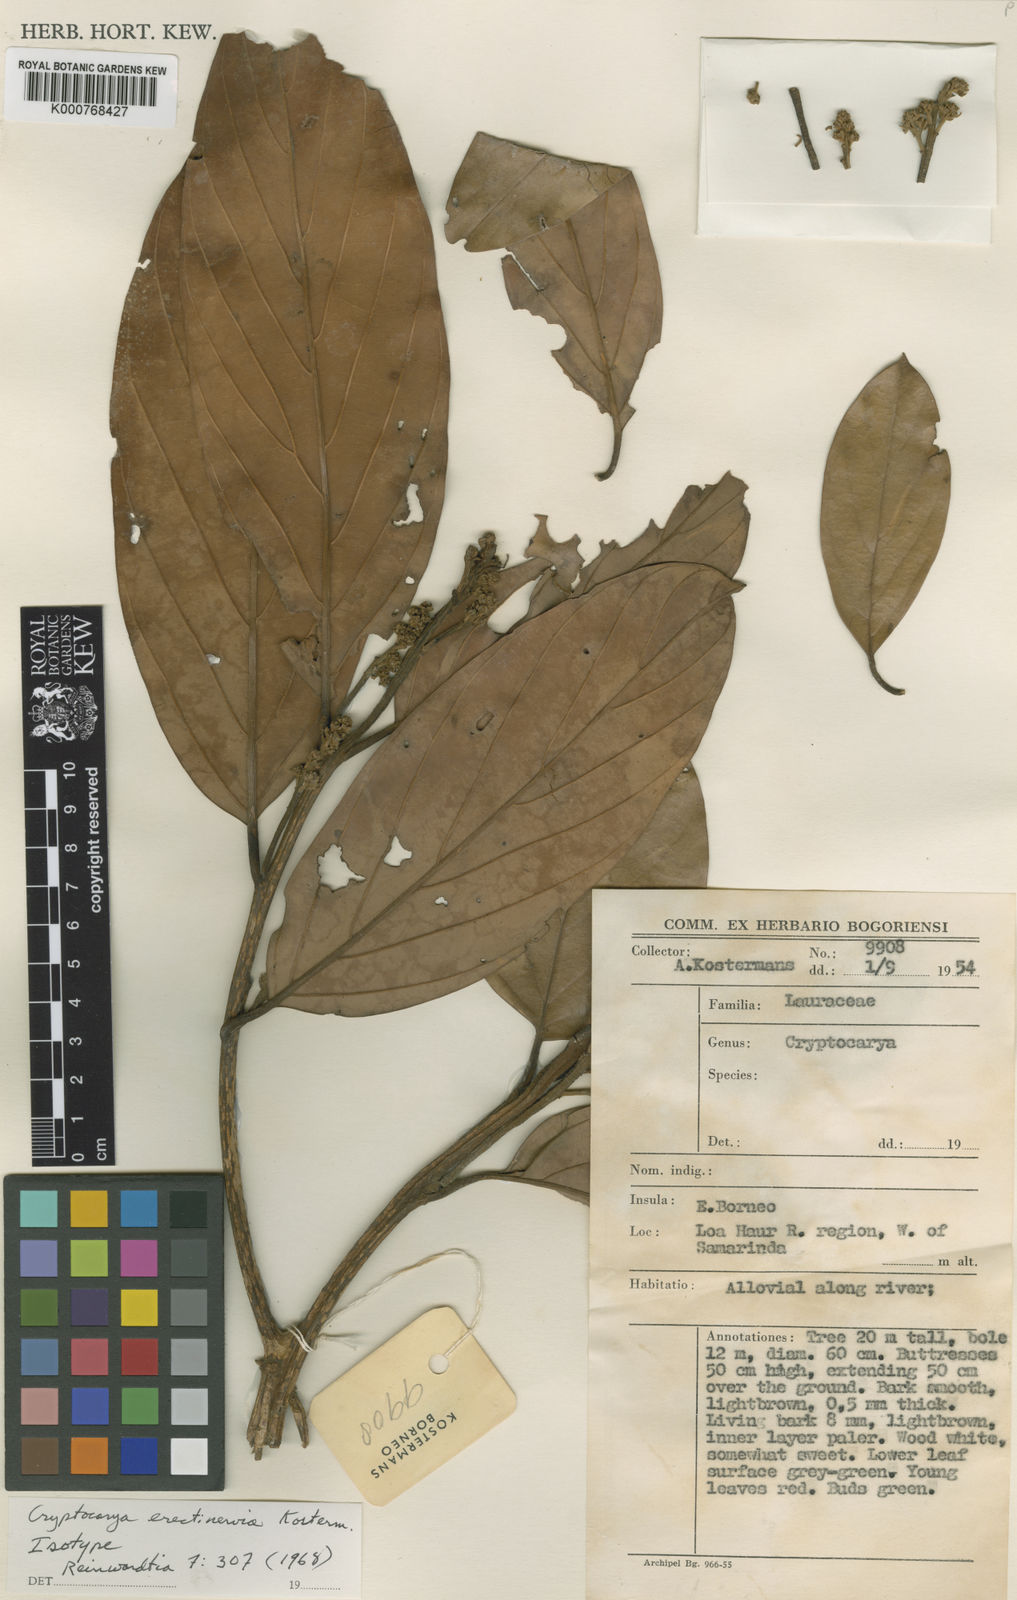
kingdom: Plantae
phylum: Tracheophyta
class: Magnoliopsida
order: Laurales
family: Lauraceae
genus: Cryptocarya
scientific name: Cryptocarya ferrea
